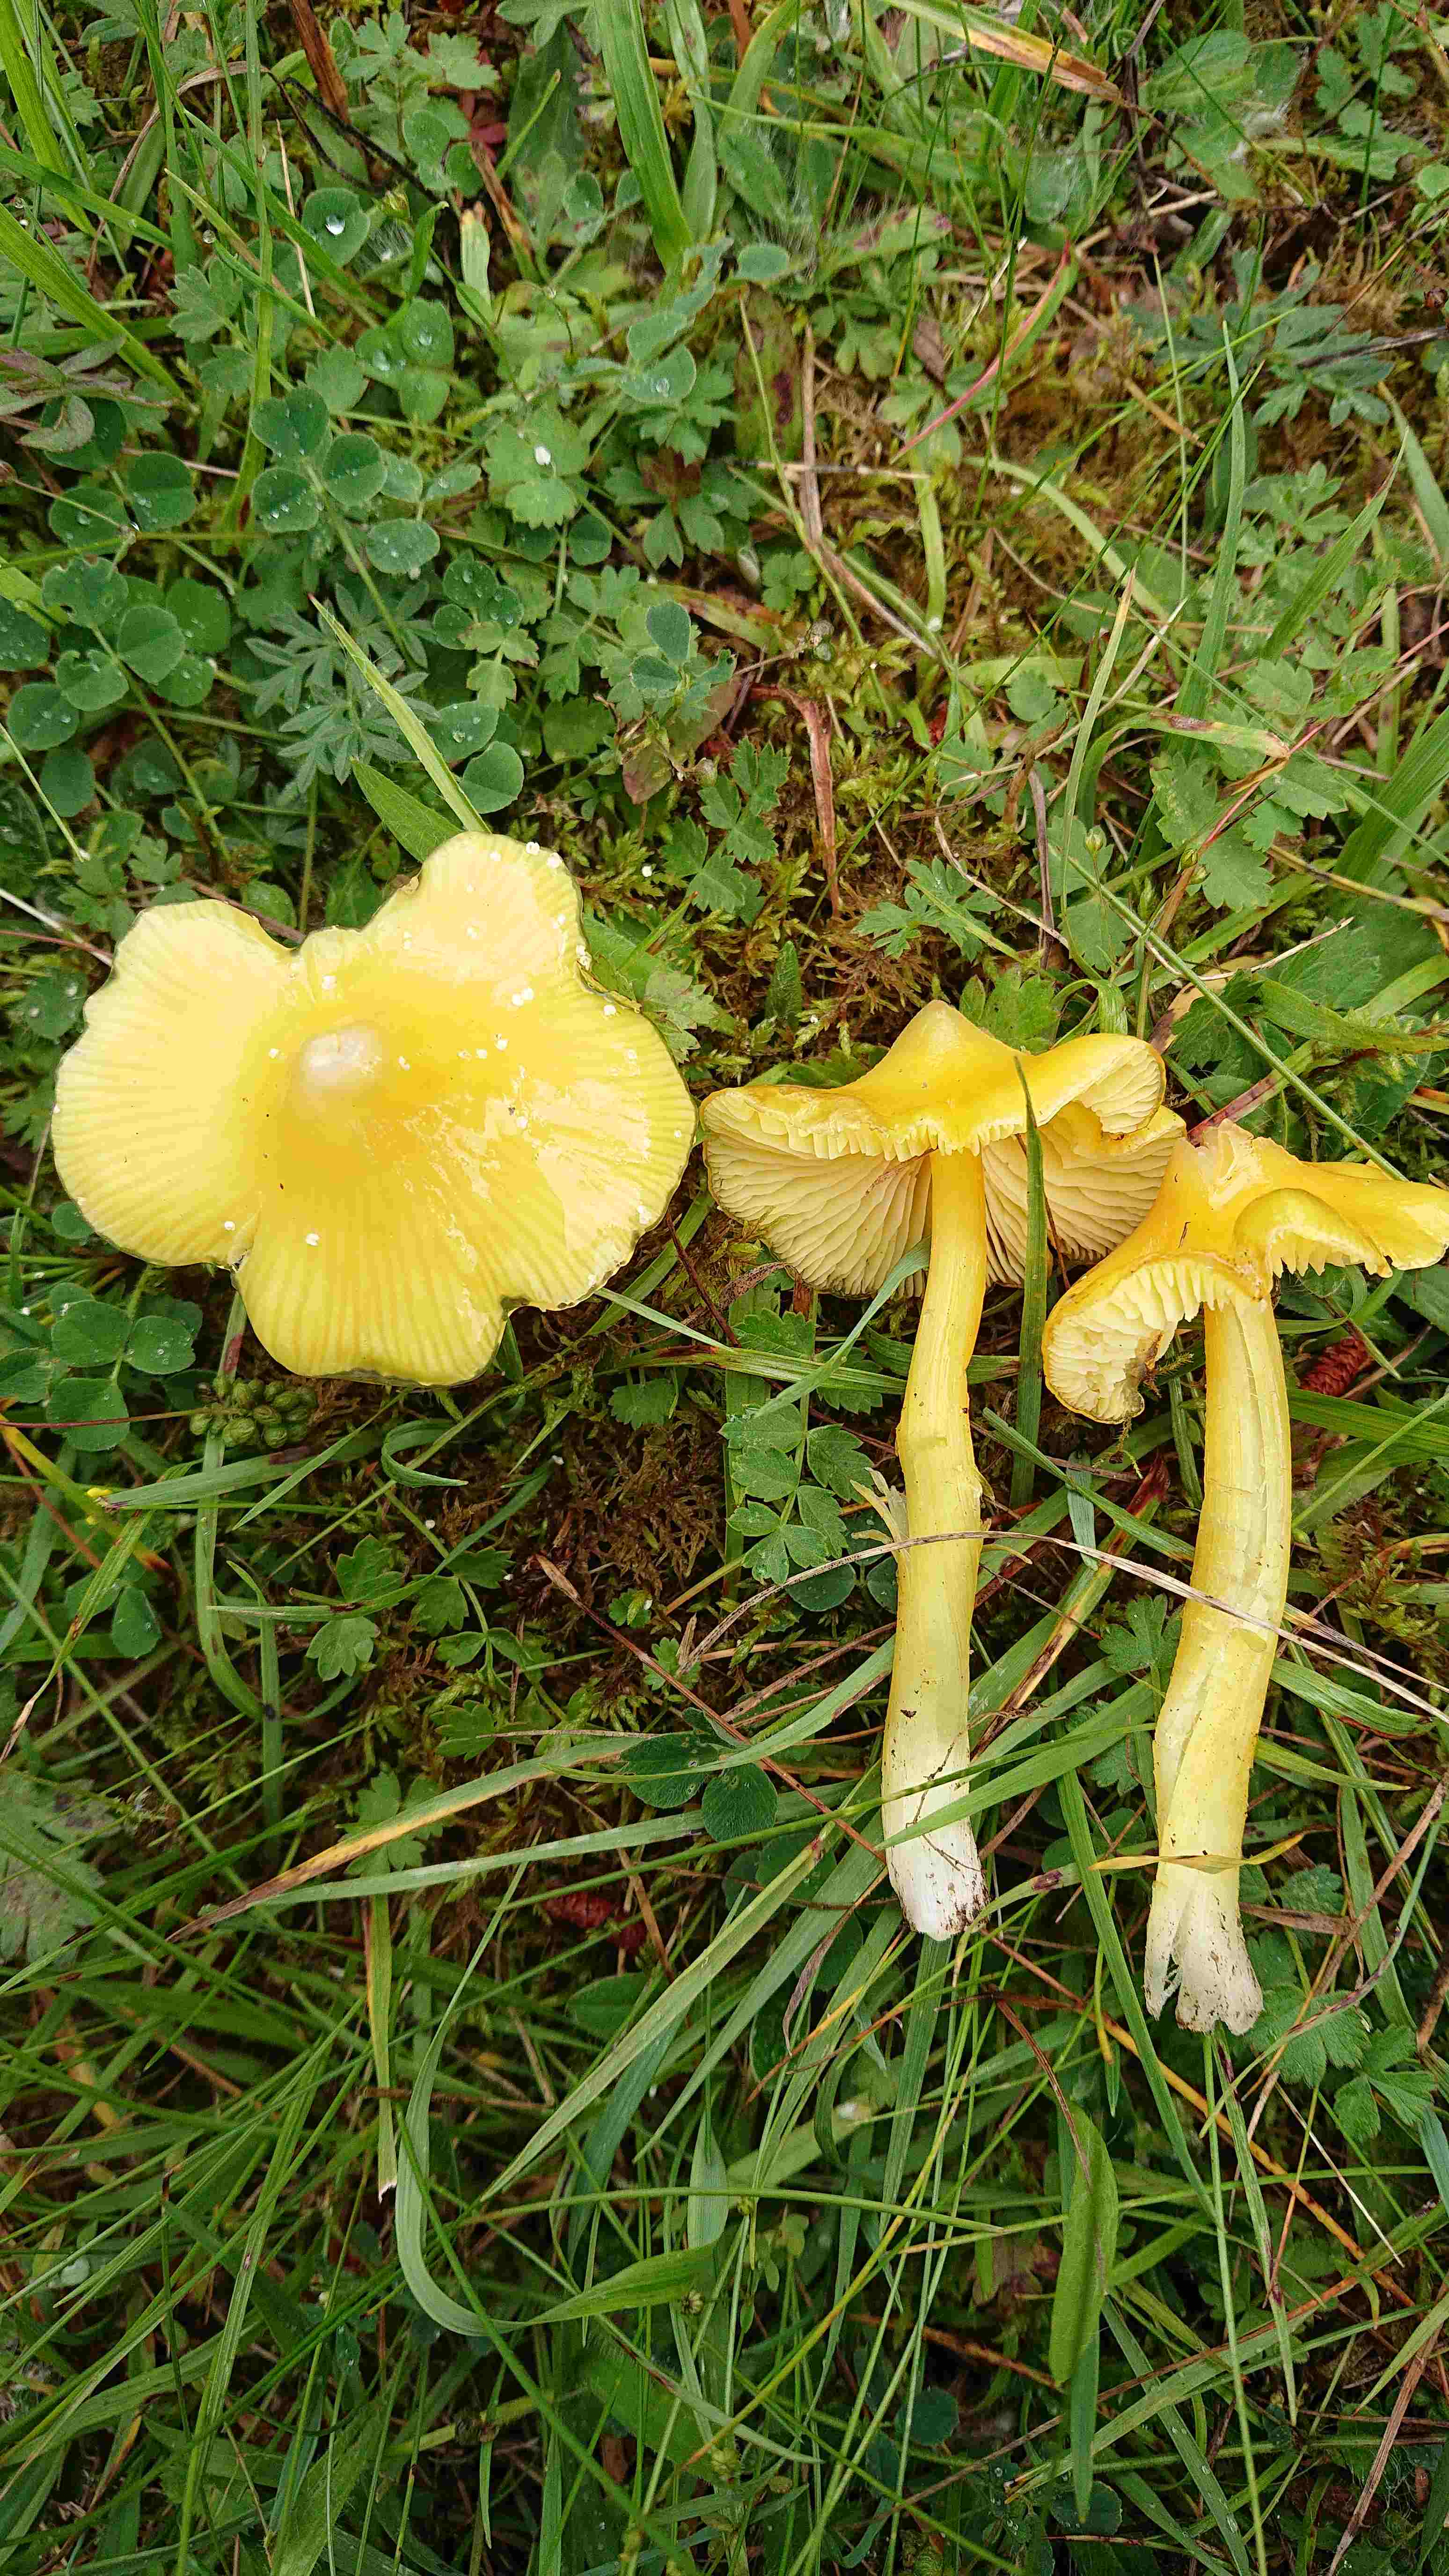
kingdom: Fungi
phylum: Basidiomycota
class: Agaricomycetes
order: Agaricales
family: Hygrophoraceae
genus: Hygrocybe
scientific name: Hygrocybe acutoconica
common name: spidspuklet vokshat
